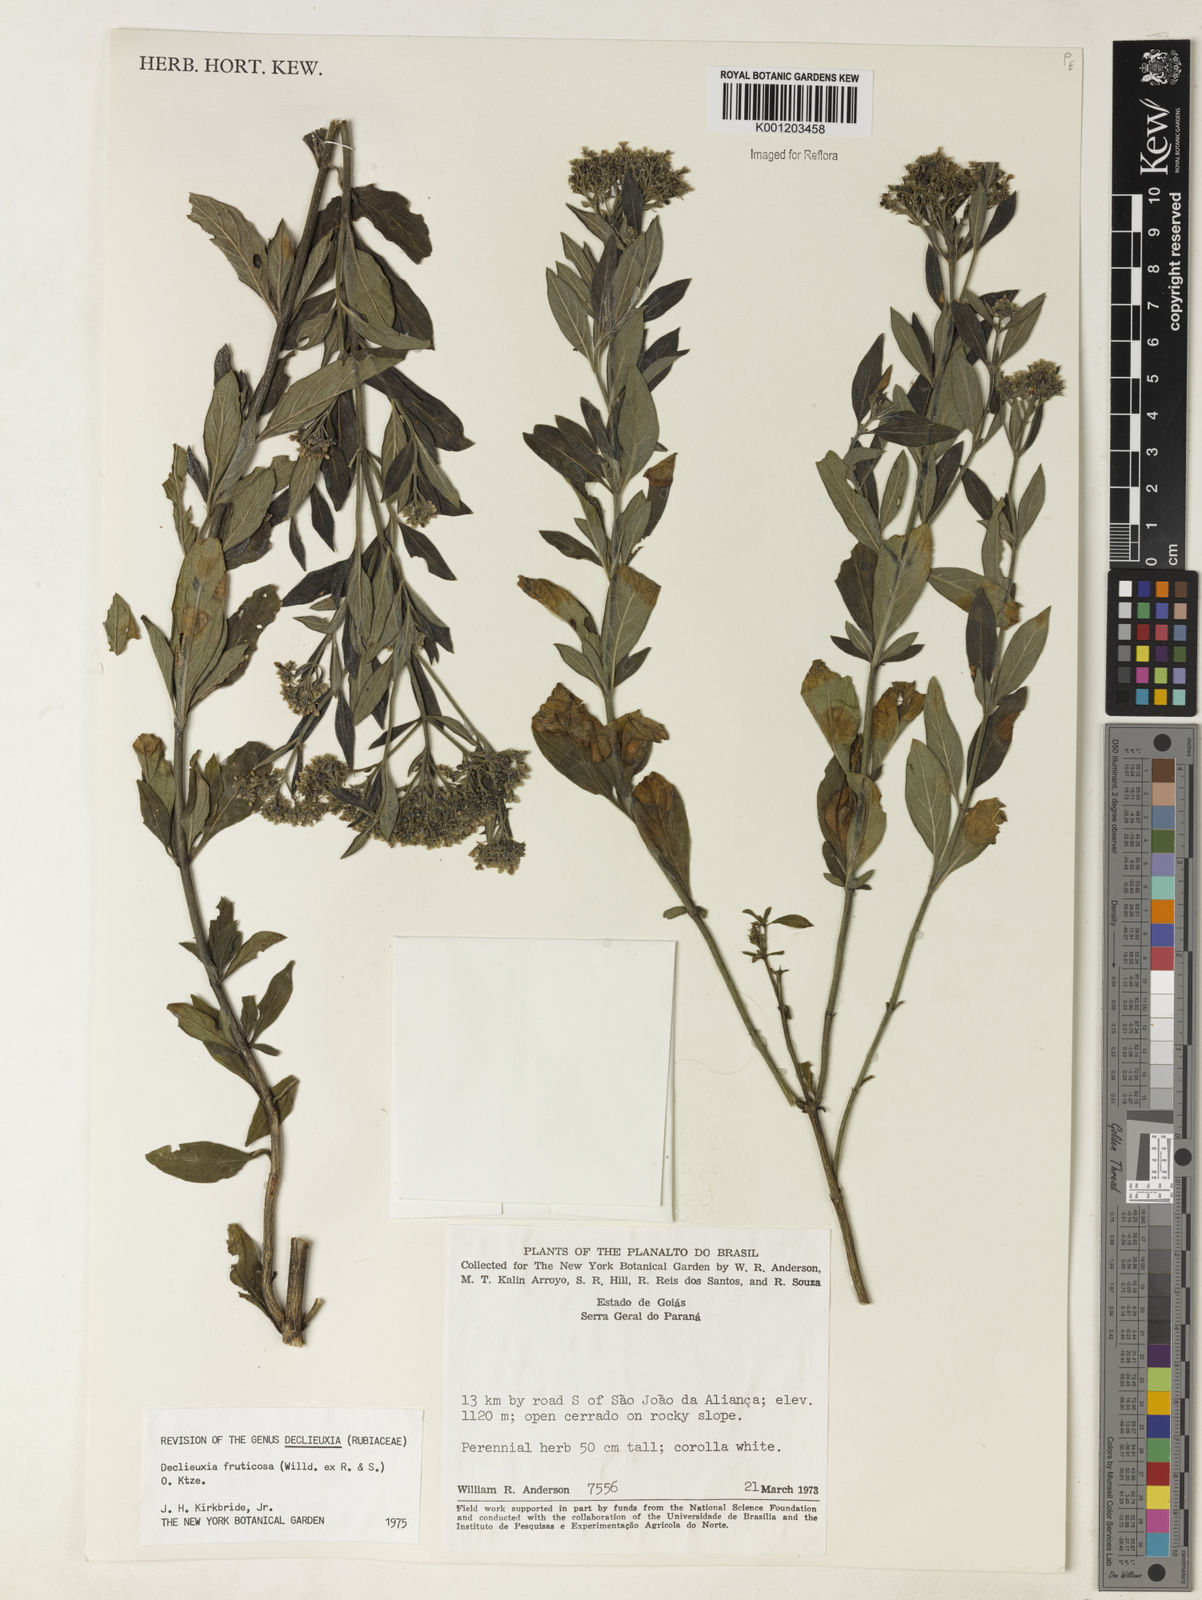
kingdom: Plantae
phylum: Tracheophyta
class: Magnoliopsida
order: Gentianales
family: Rubiaceae
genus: Declieuxia
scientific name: Declieuxia fruticosa
